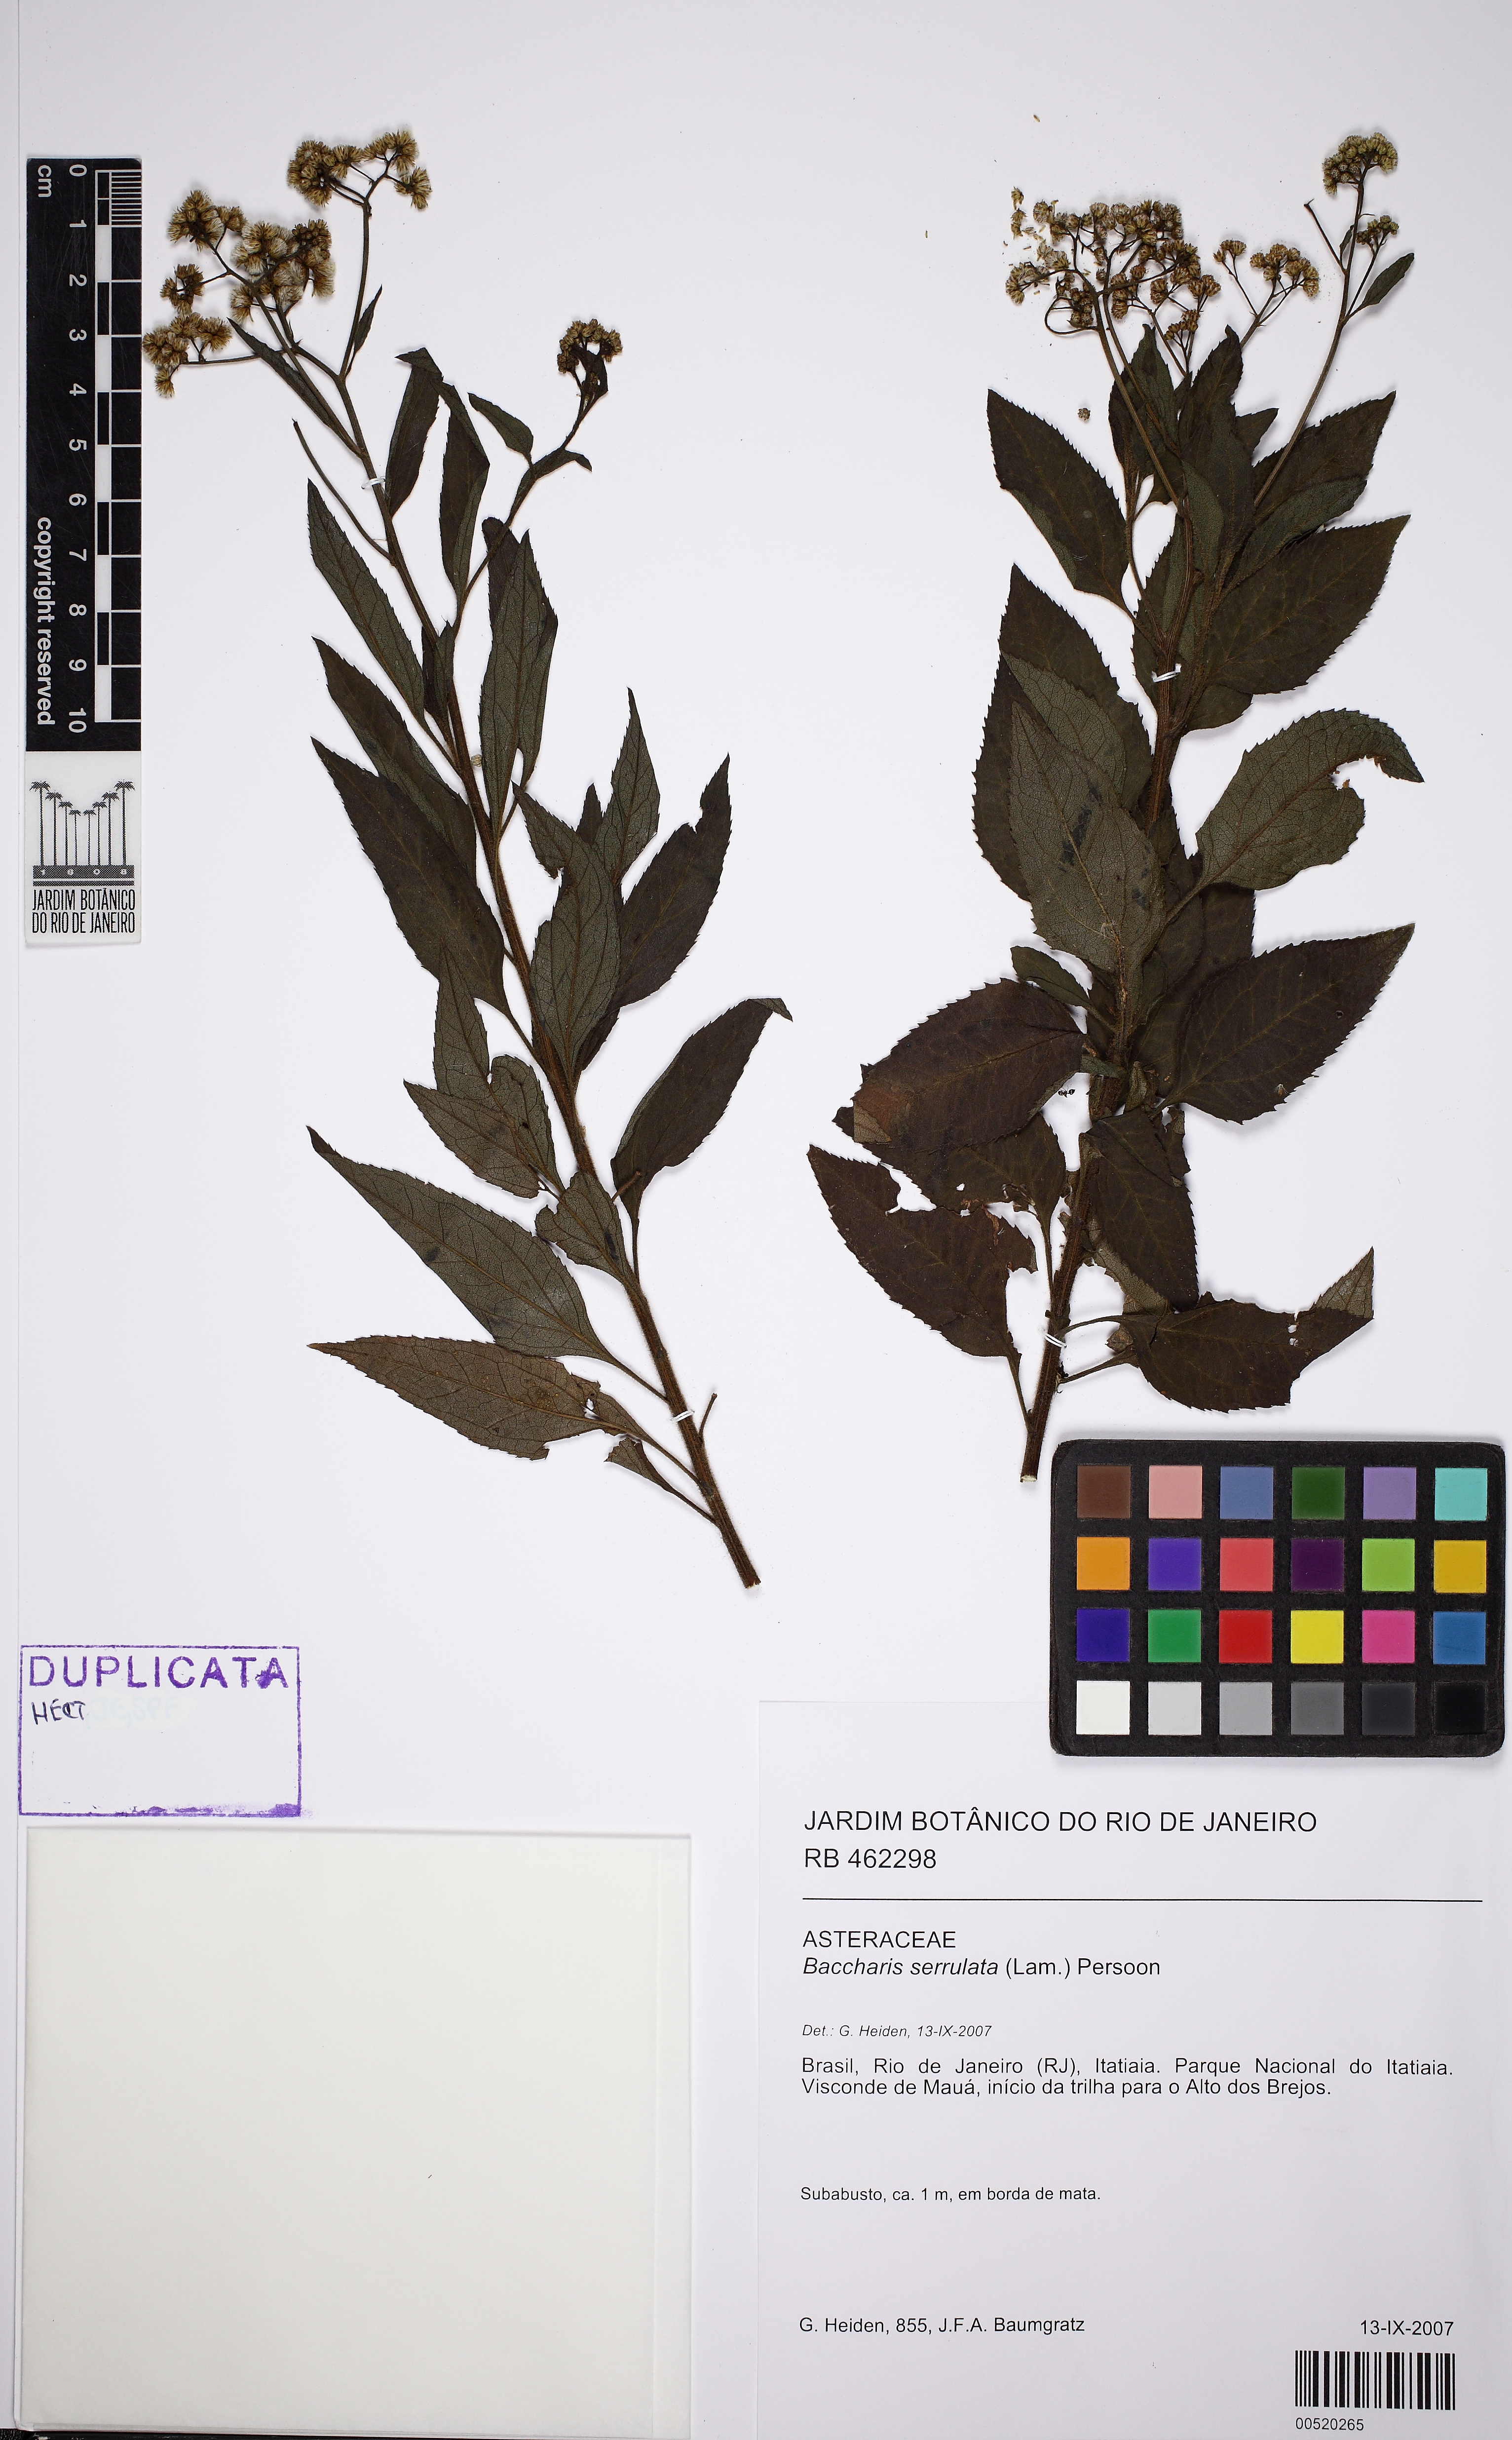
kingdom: Plantae
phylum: Tracheophyta
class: Magnoliopsida
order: Asterales
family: Asteraceae
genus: Baccharis
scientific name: Baccharis serrulata
